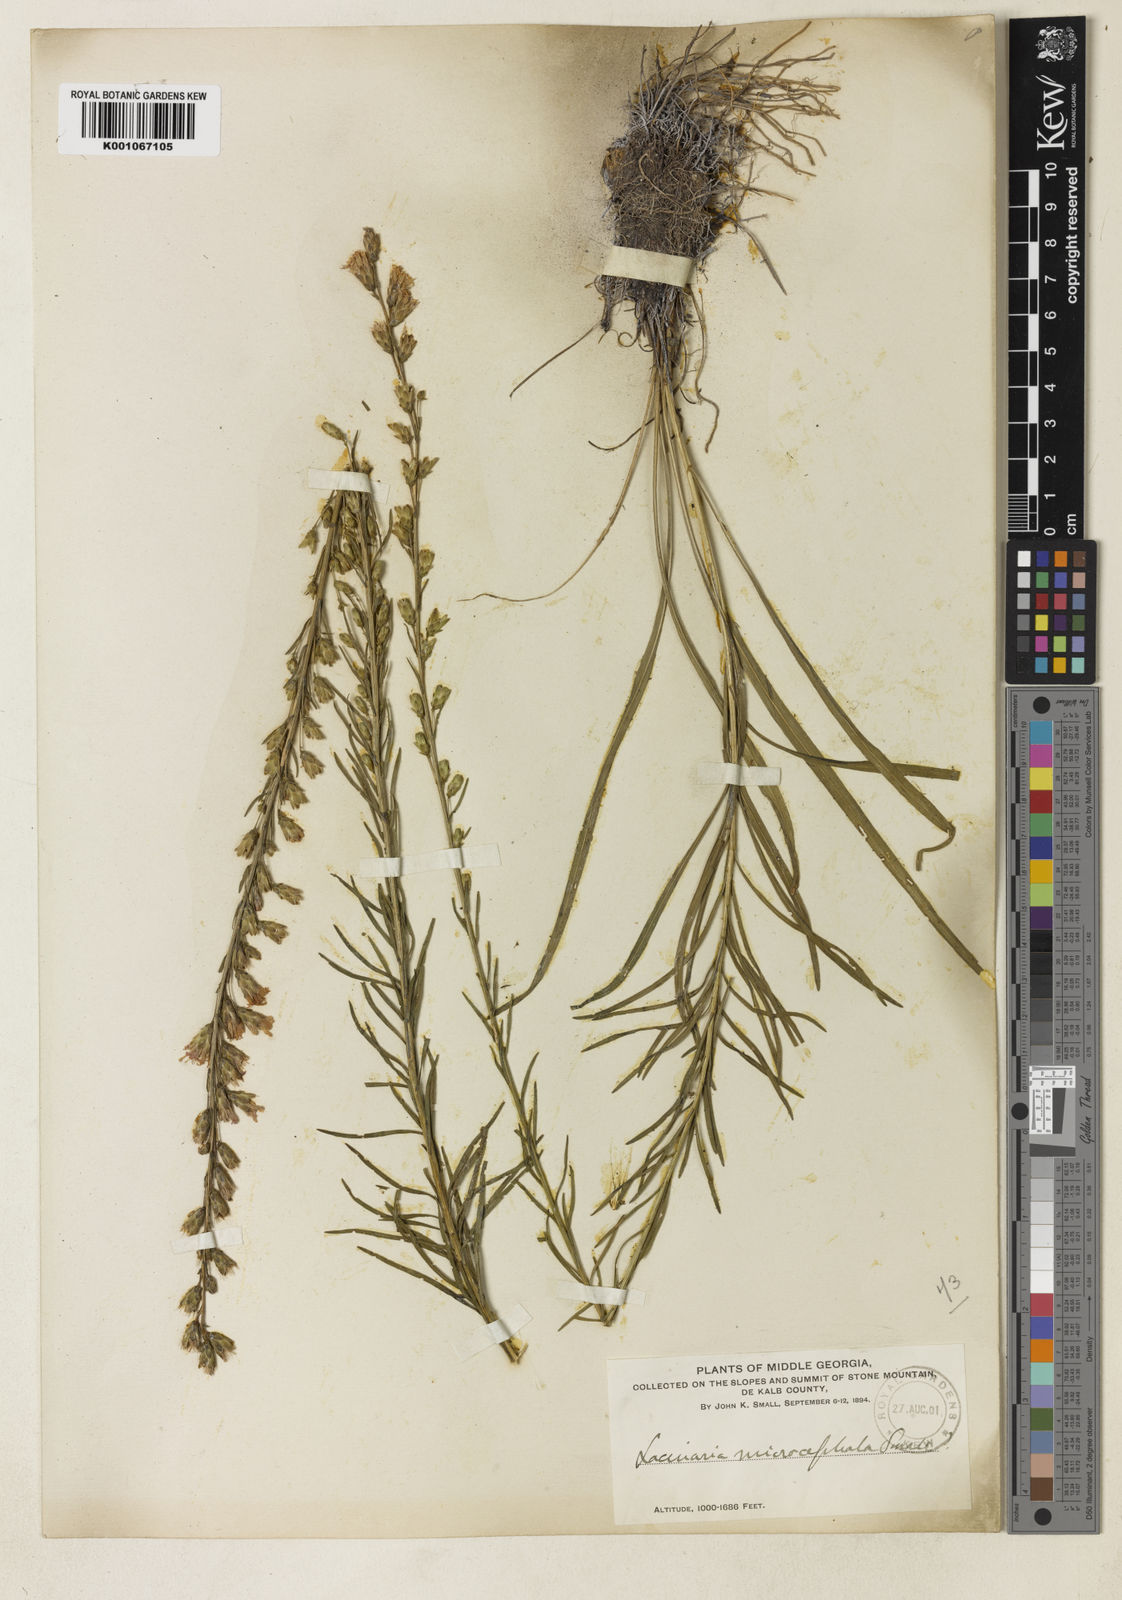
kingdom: Plantae
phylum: Tracheophyta
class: Magnoliopsida
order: Asterales
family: Asteraceae
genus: Liatris
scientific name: Liatris lancifolia
